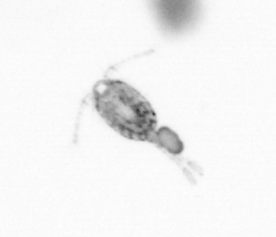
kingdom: Animalia
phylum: Arthropoda
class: Copepoda
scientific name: Copepoda
